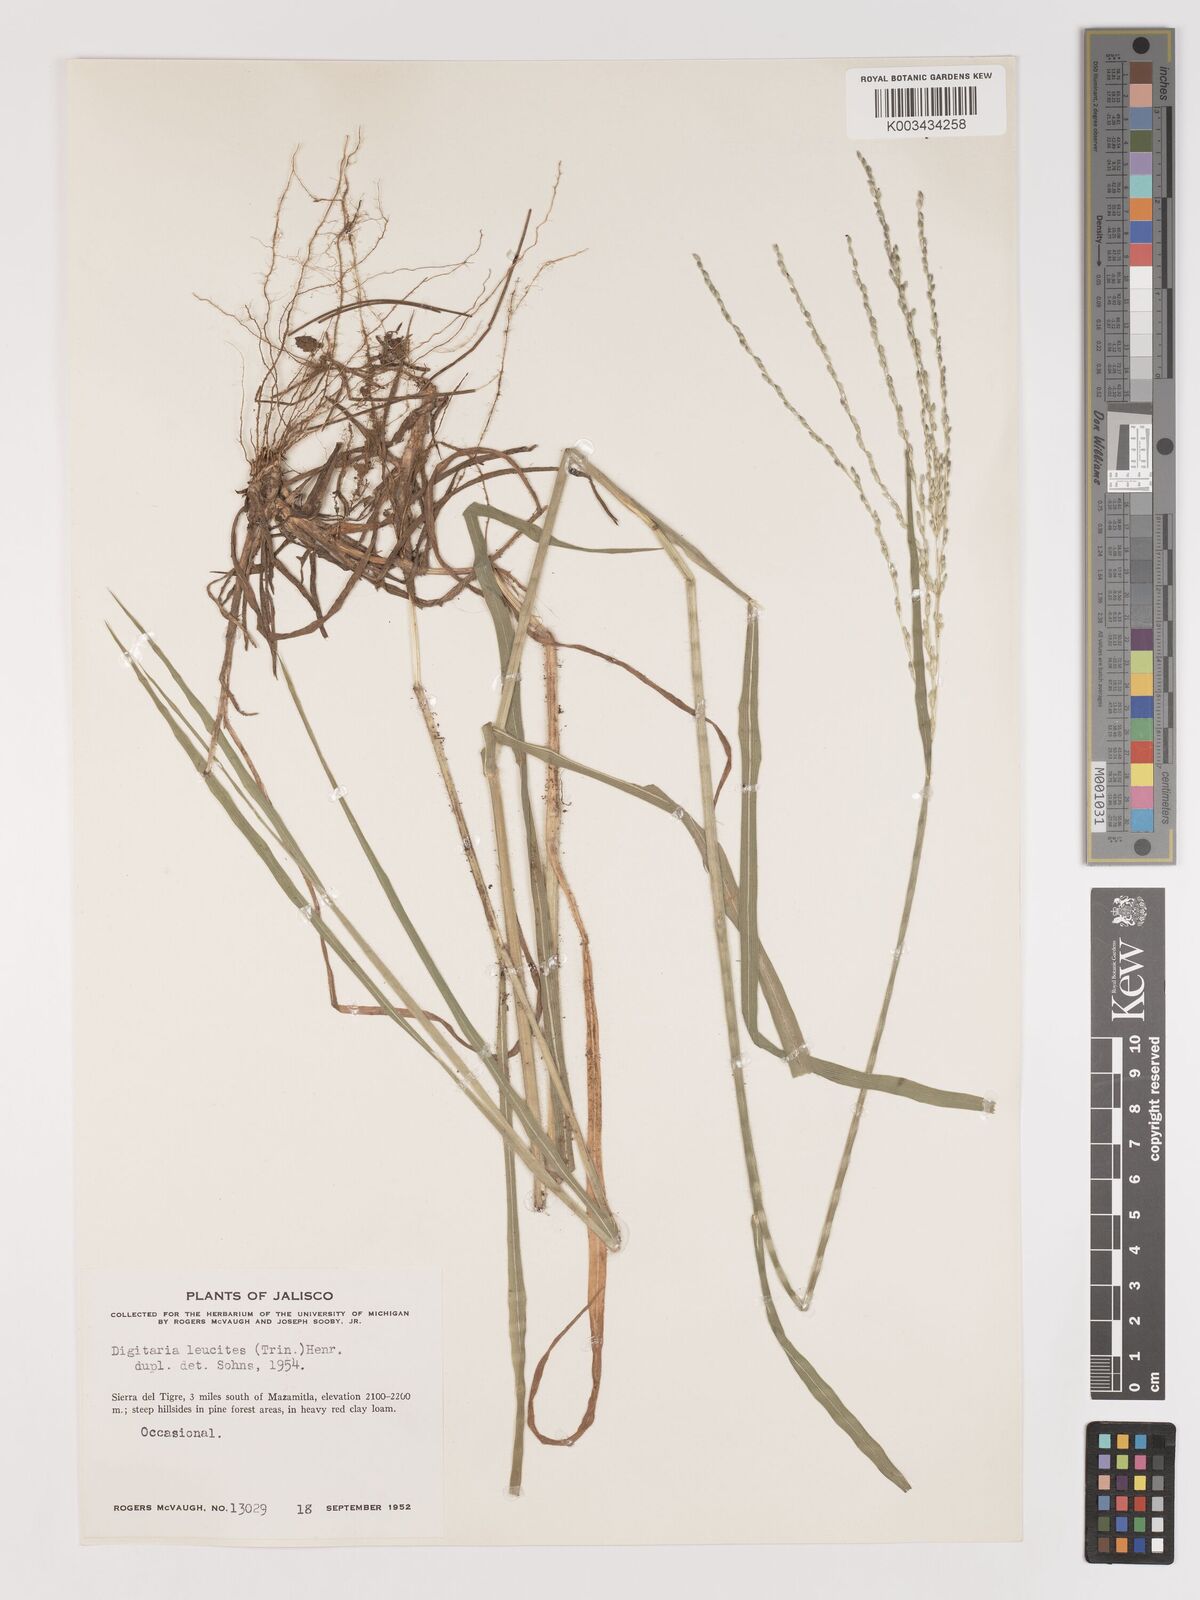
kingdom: Plantae
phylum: Tracheophyta
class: Liliopsida
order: Poales
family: Poaceae
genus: Digitaria
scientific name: Digitaria leucites
